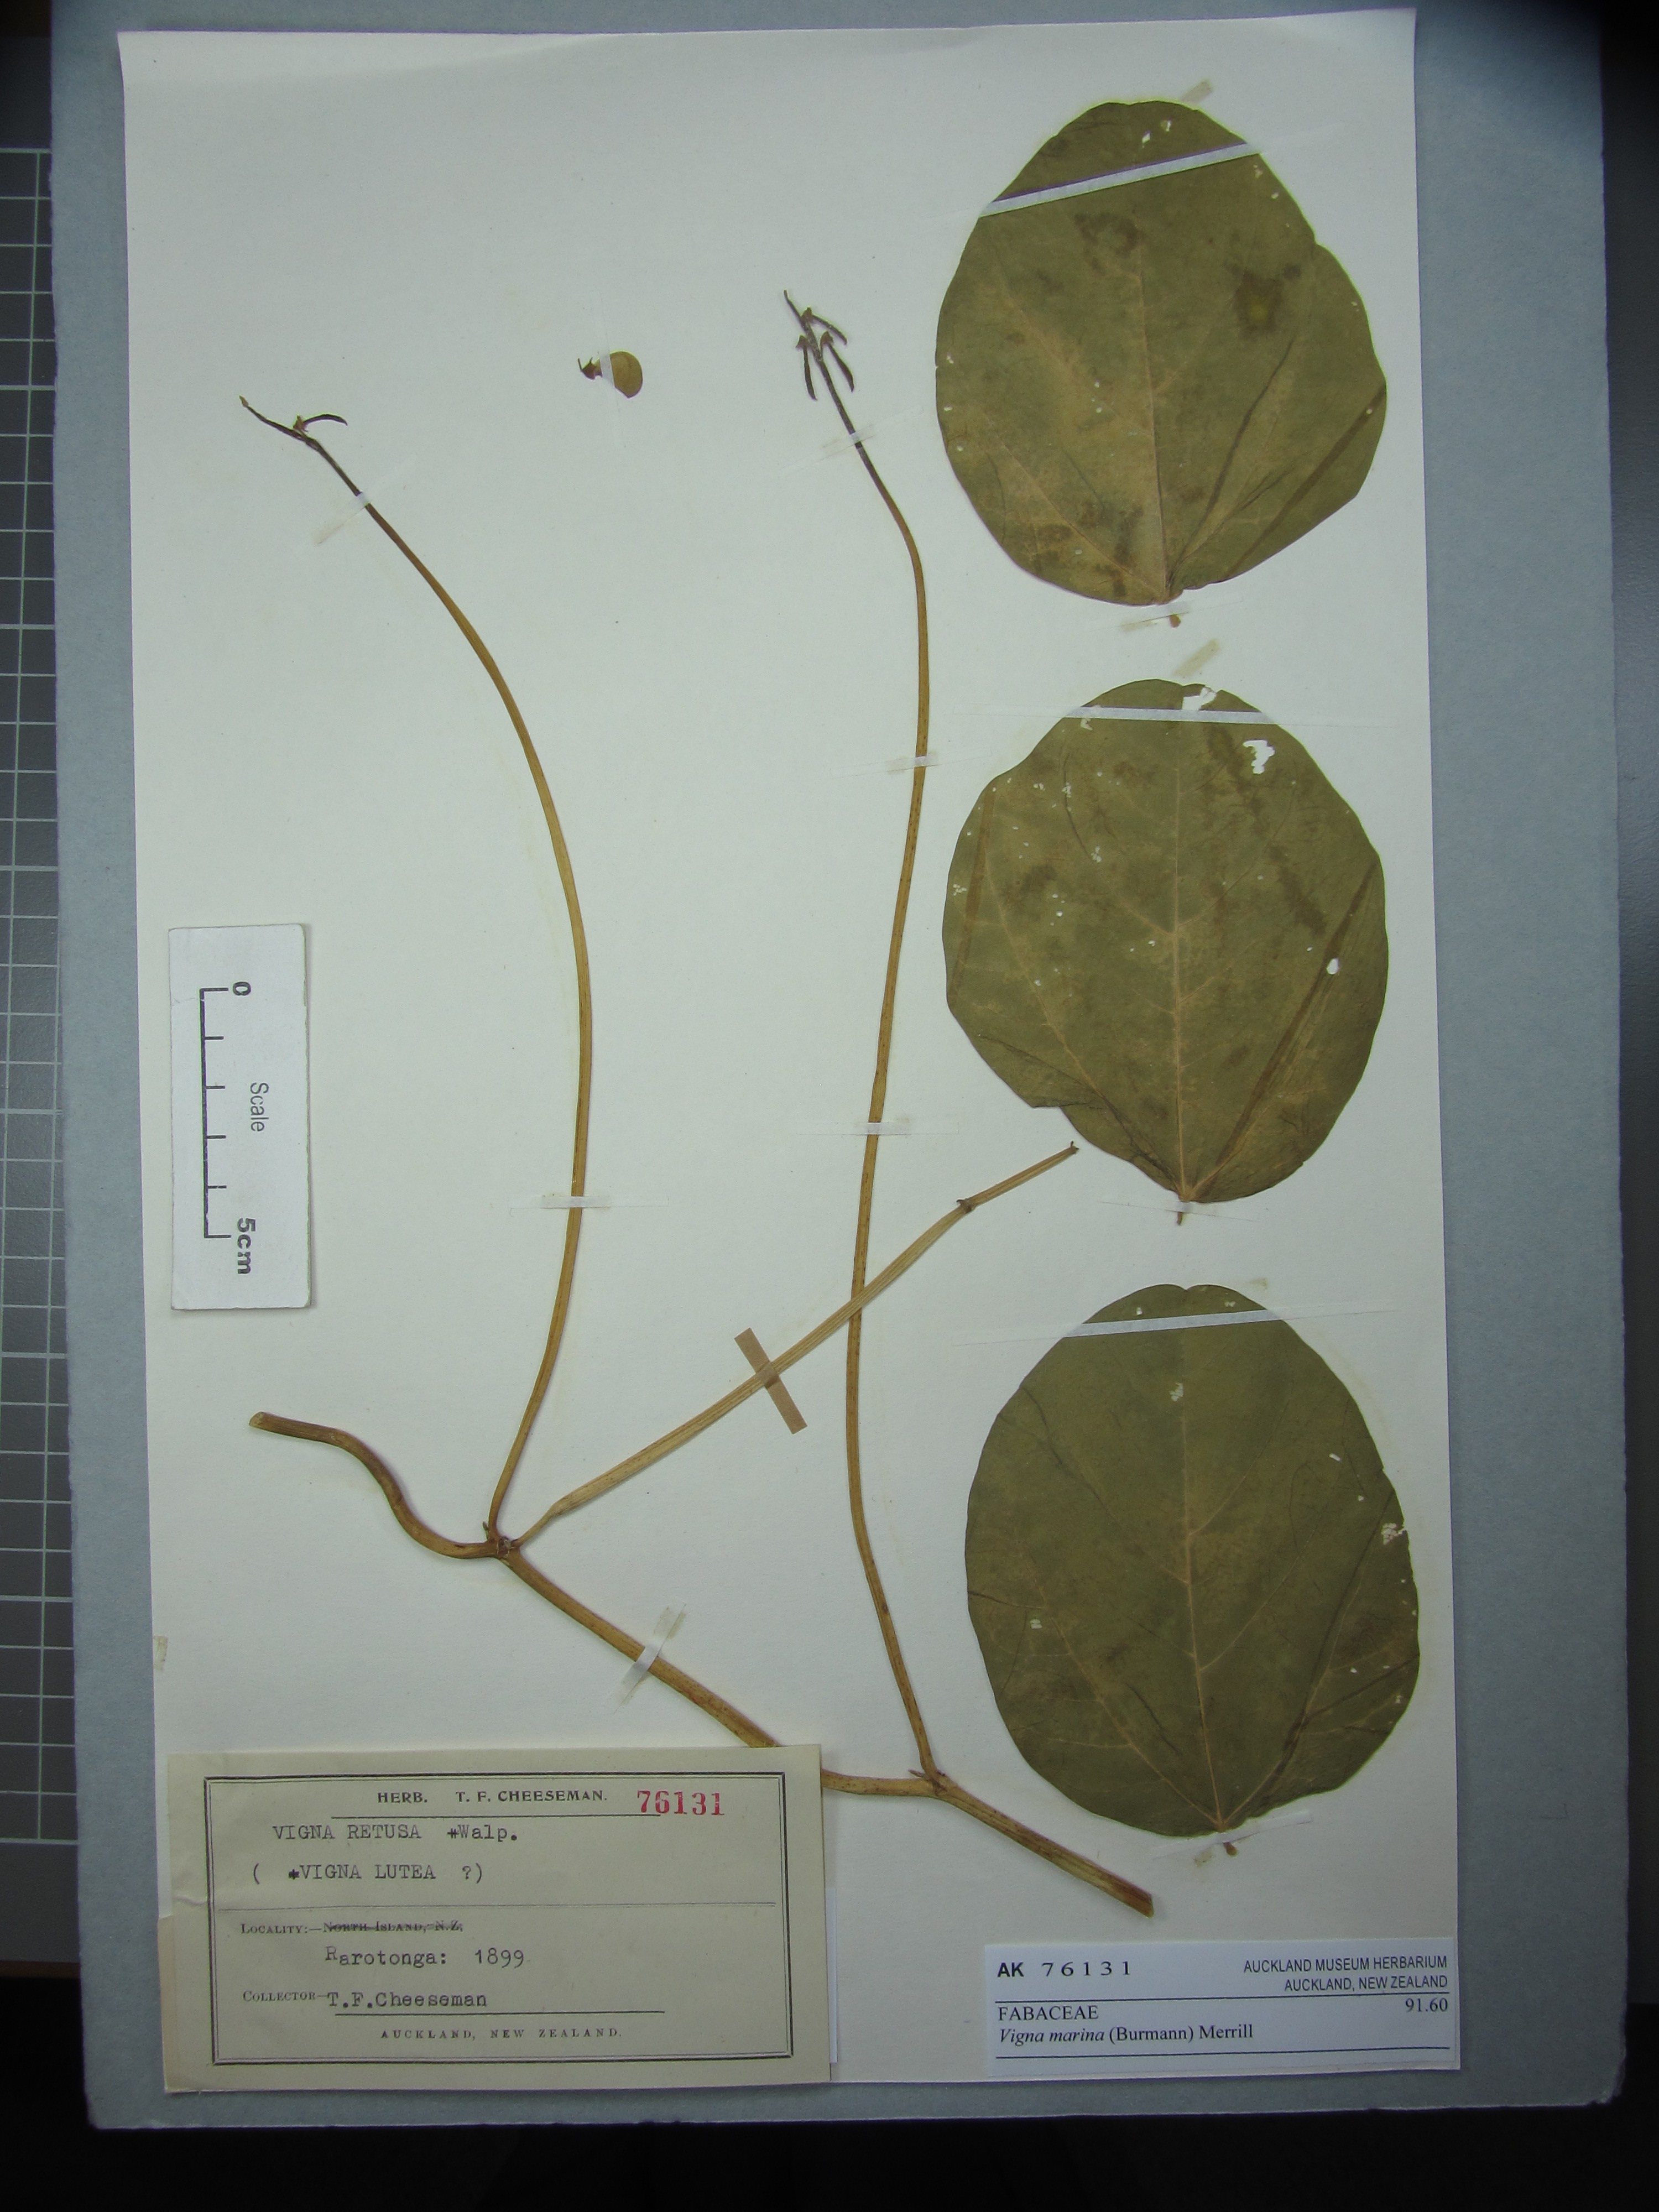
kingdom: Plantae
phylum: Tracheophyta
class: Magnoliopsida
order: Fabales
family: Fabaceae
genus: Vigna
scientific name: Vigna marina
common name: Dune-bean
